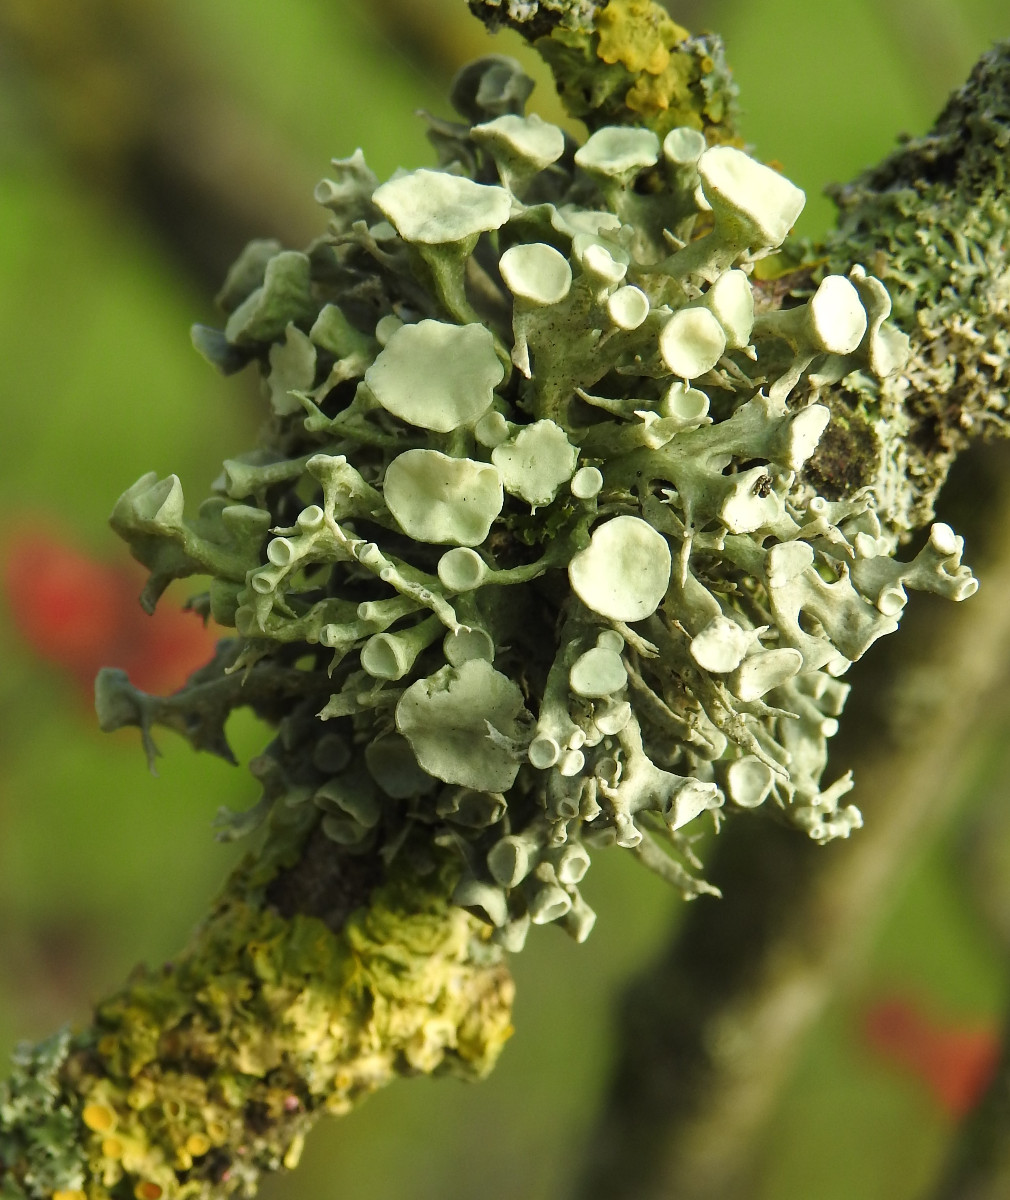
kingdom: Fungi
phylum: Ascomycota
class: Lecanoromycetes
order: Lecanorales
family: Ramalinaceae
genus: Ramalina
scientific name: Ramalina fastigiata
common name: tue-grenlav
